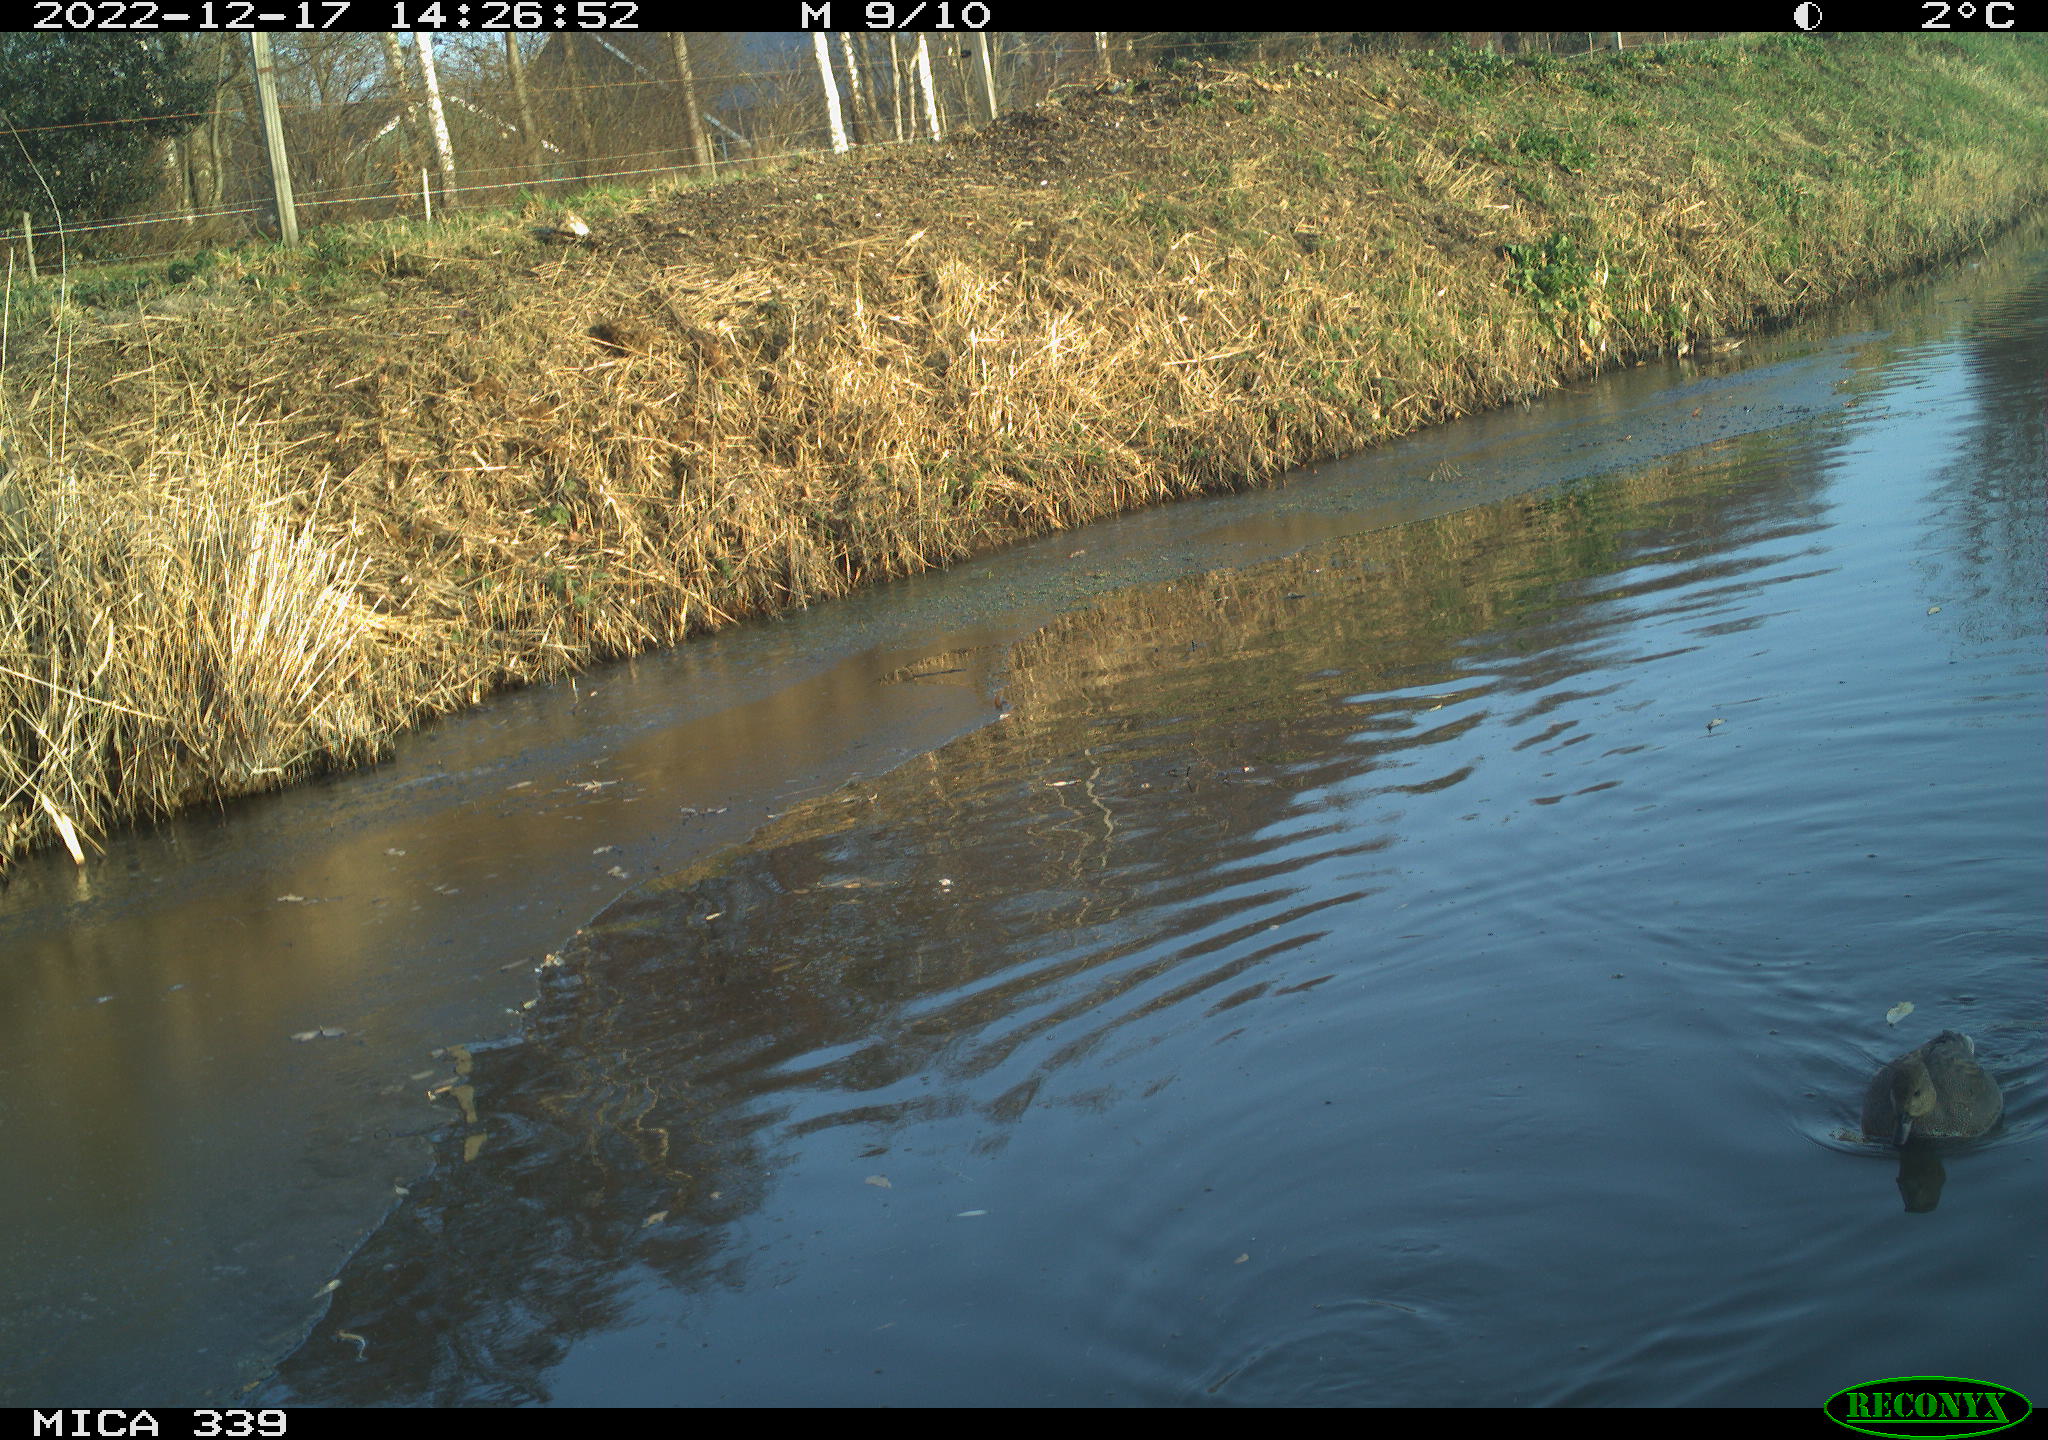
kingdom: Animalia
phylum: Chordata
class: Aves
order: Anseriformes
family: Anatidae
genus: Anas
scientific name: Anas
